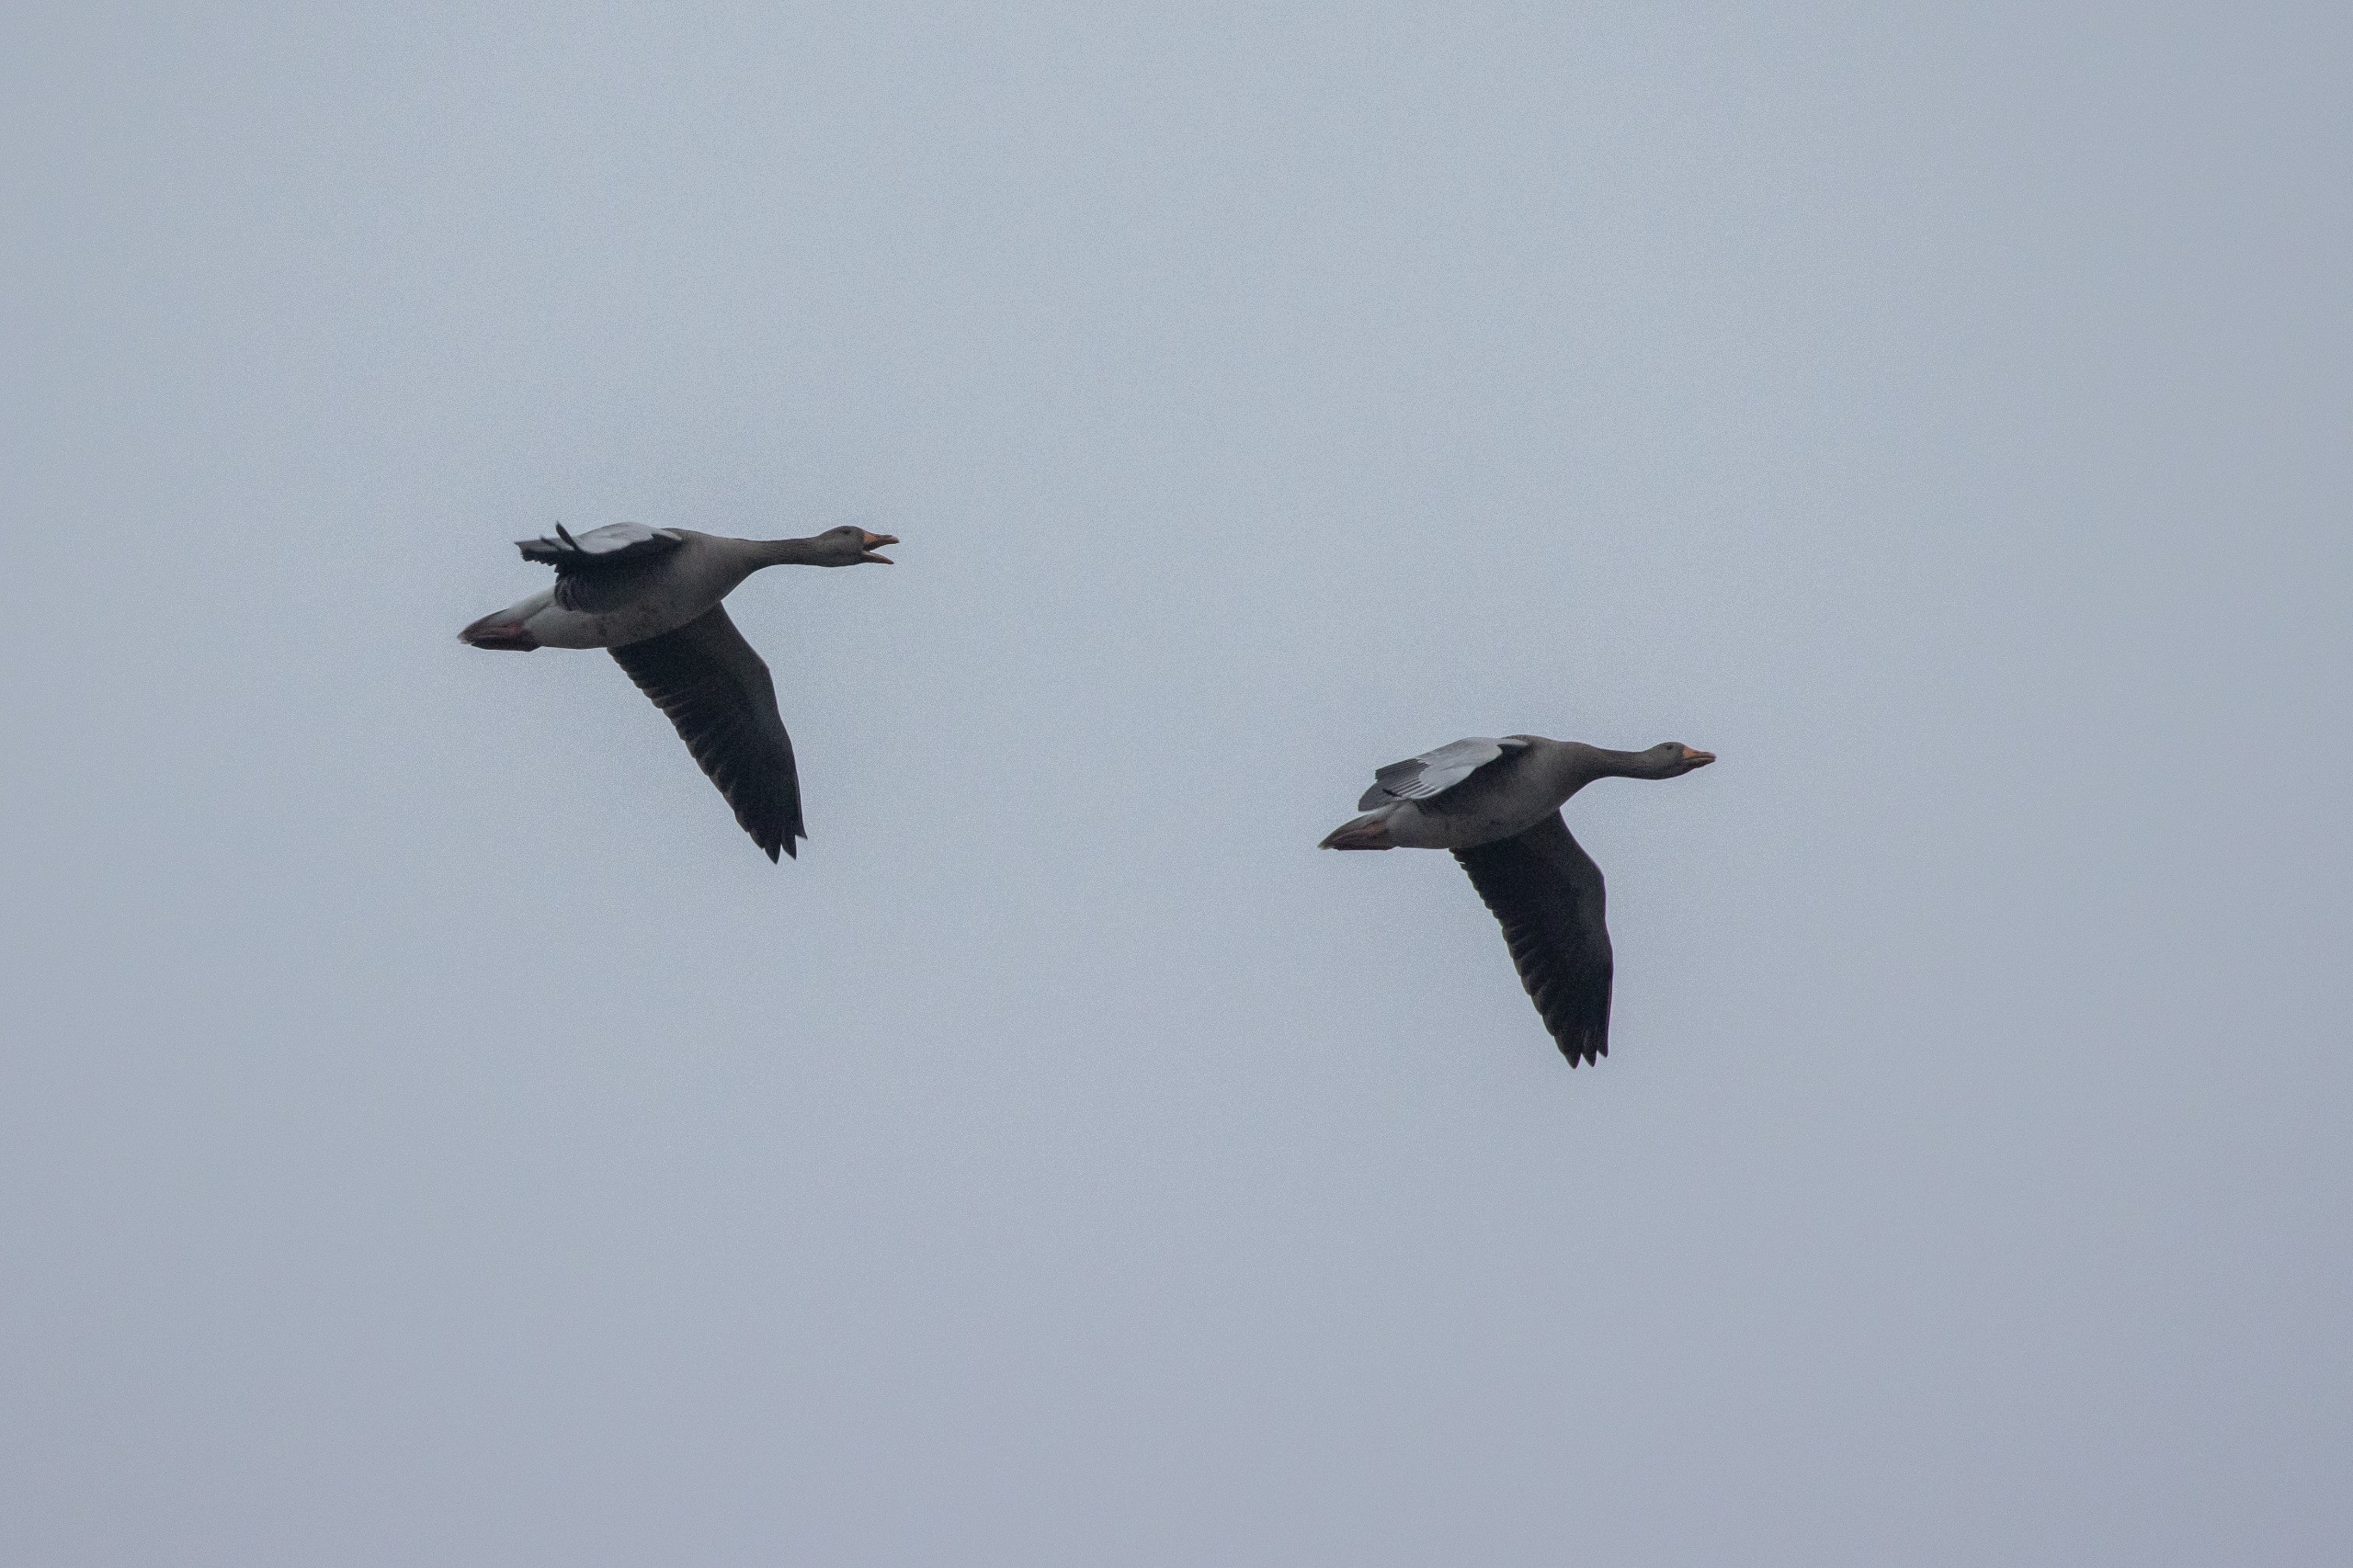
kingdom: Animalia
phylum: Chordata
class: Aves
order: Anseriformes
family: Anatidae
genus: Anser
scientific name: Anser anser
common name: Grågås
